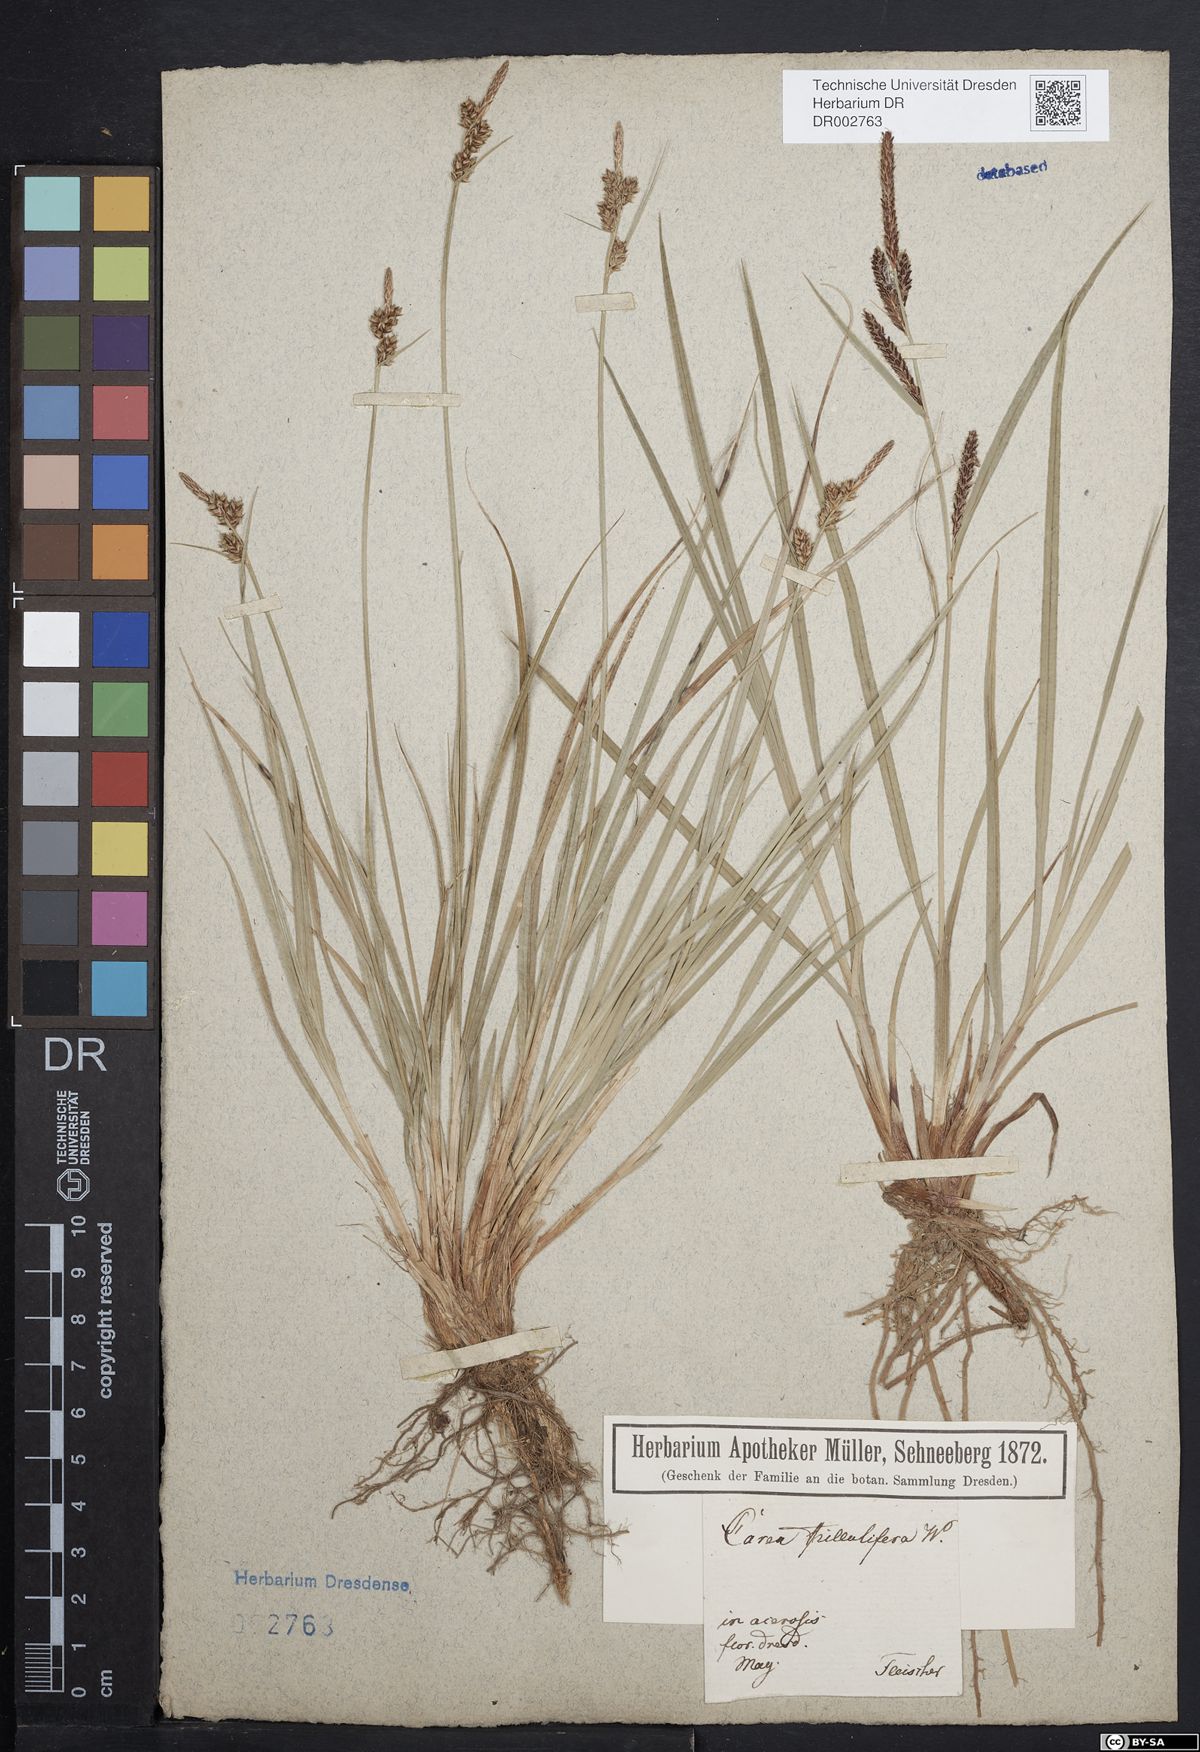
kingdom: Plantae
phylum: Tracheophyta
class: Liliopsida
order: Poales
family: Cyperaceae
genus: Carex
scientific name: Carex caryophyllea
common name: Spring sedge
